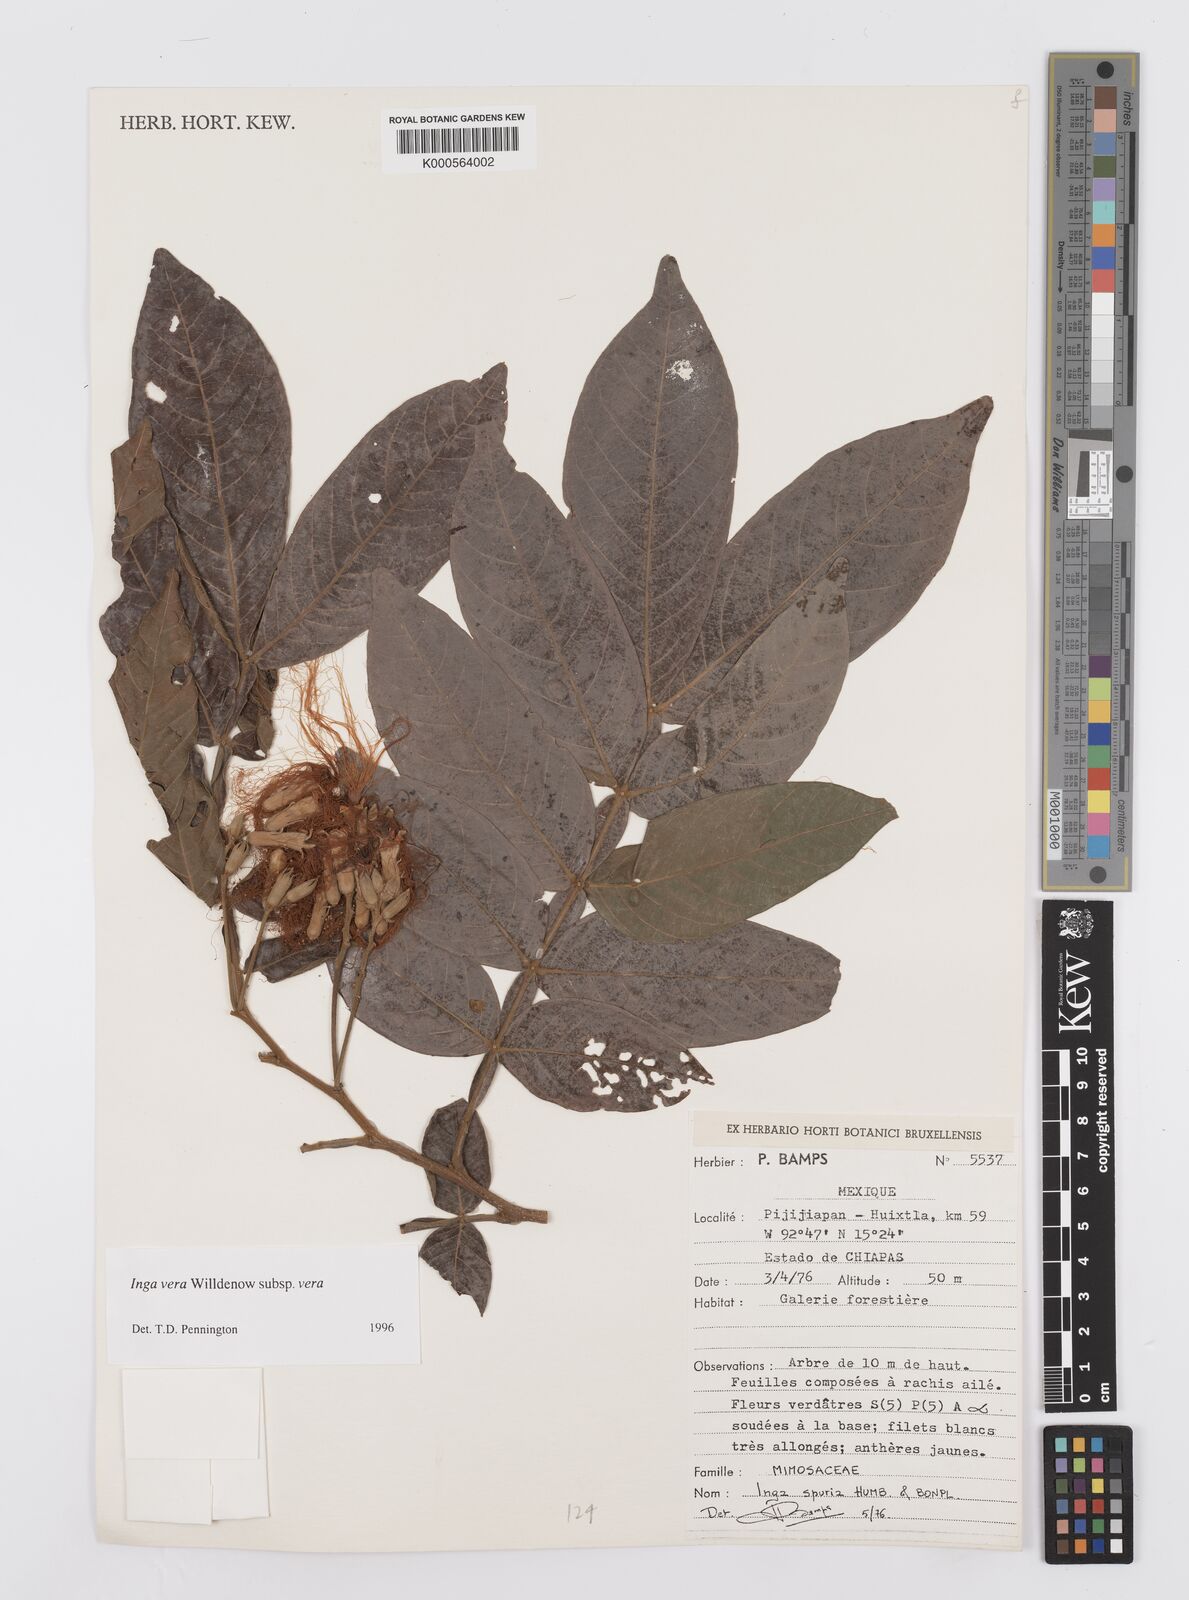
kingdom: Plantae
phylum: Tracheophyta
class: Magnoliopsida
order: Fabales
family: Fabaceae
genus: Inga
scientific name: Inga vera
